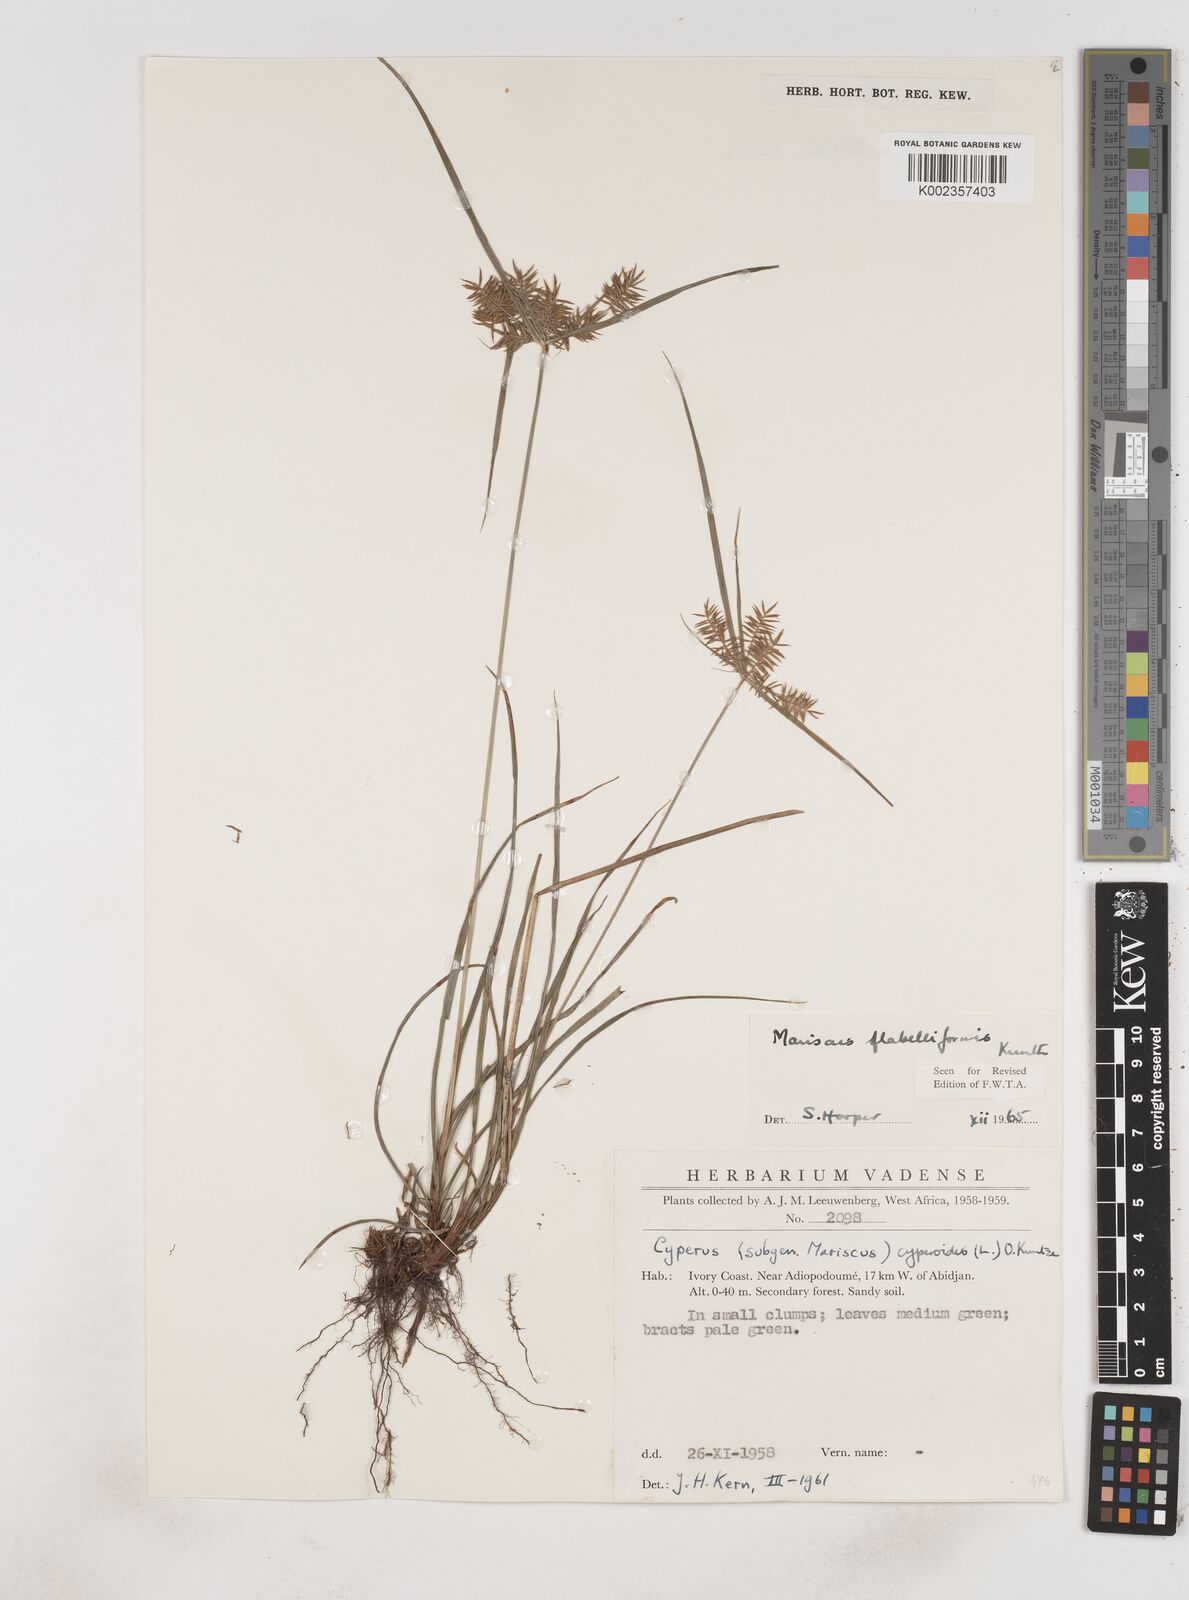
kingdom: Plantae
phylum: Tracheophyta
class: Liliopsida
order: Poales
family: Cyperaceae
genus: Cyperus
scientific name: Cyperus tenuis
